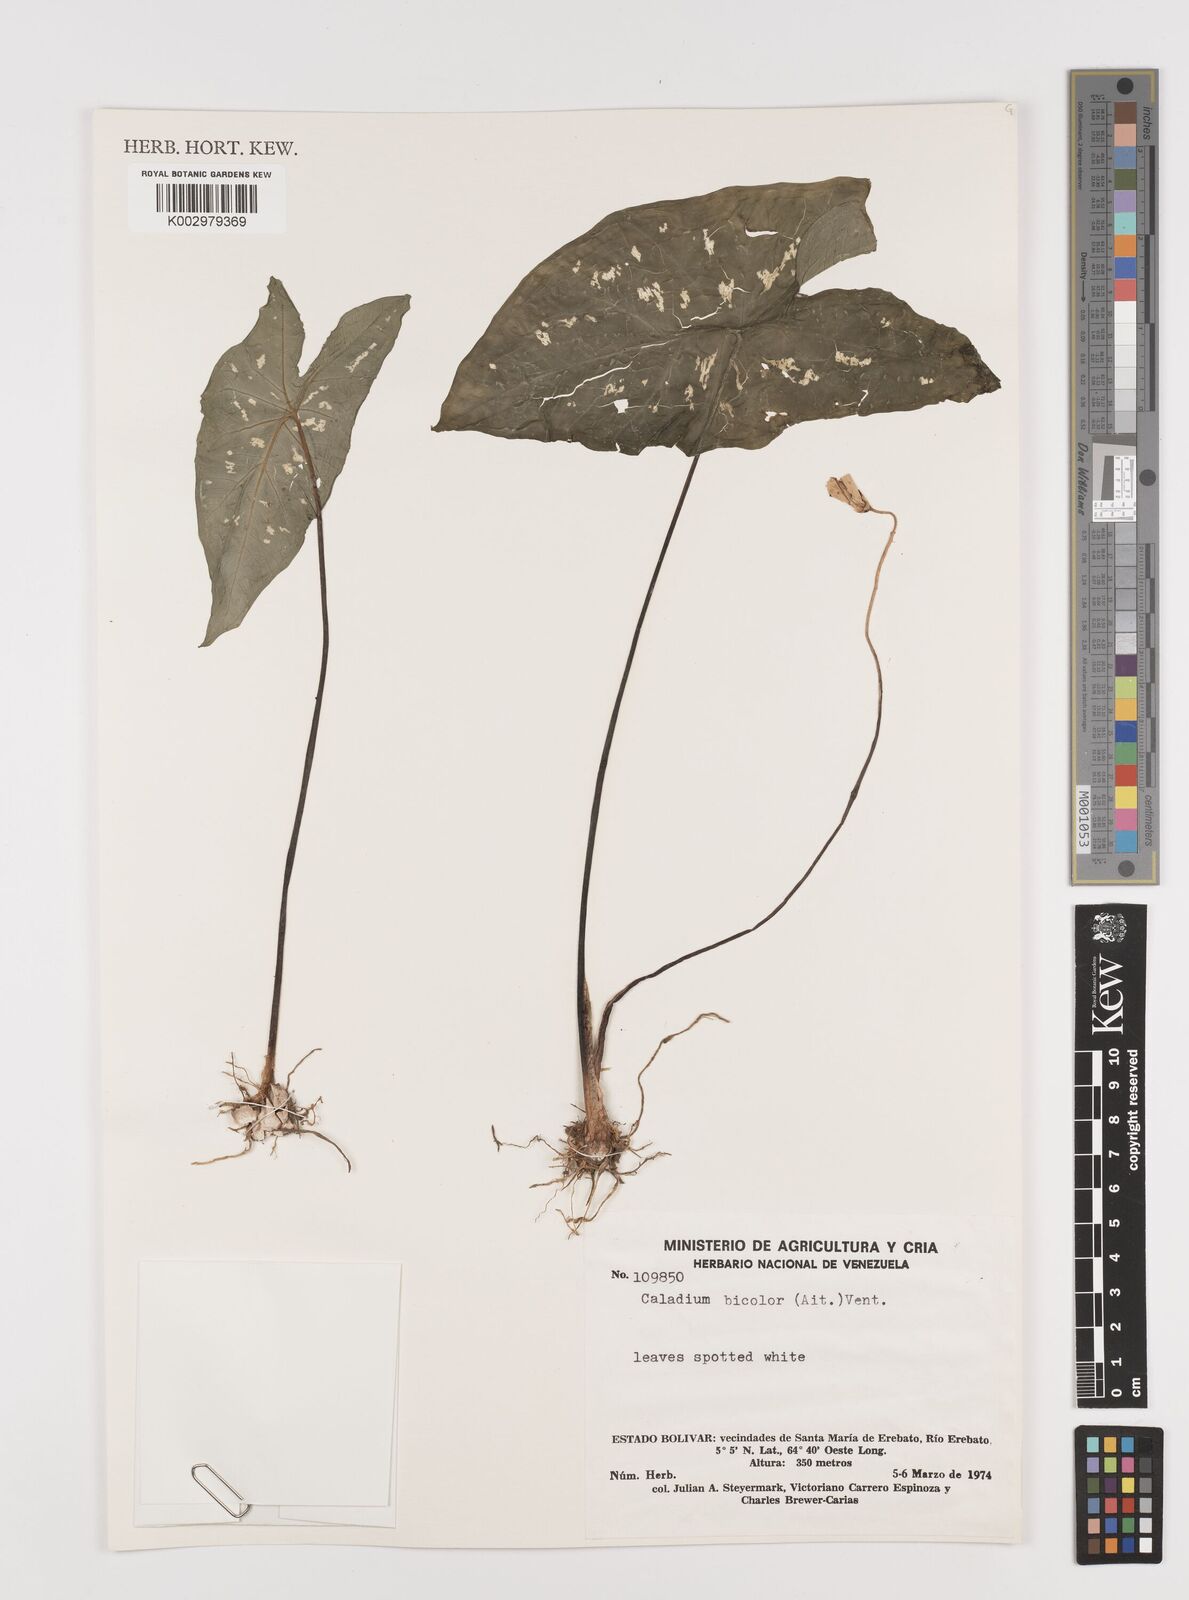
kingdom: Plantae
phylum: Tracheophyta
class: Liliopsida
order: Alismatales
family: Araceae
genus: Caladium
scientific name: Caladium bicolor
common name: Artist's pallet
